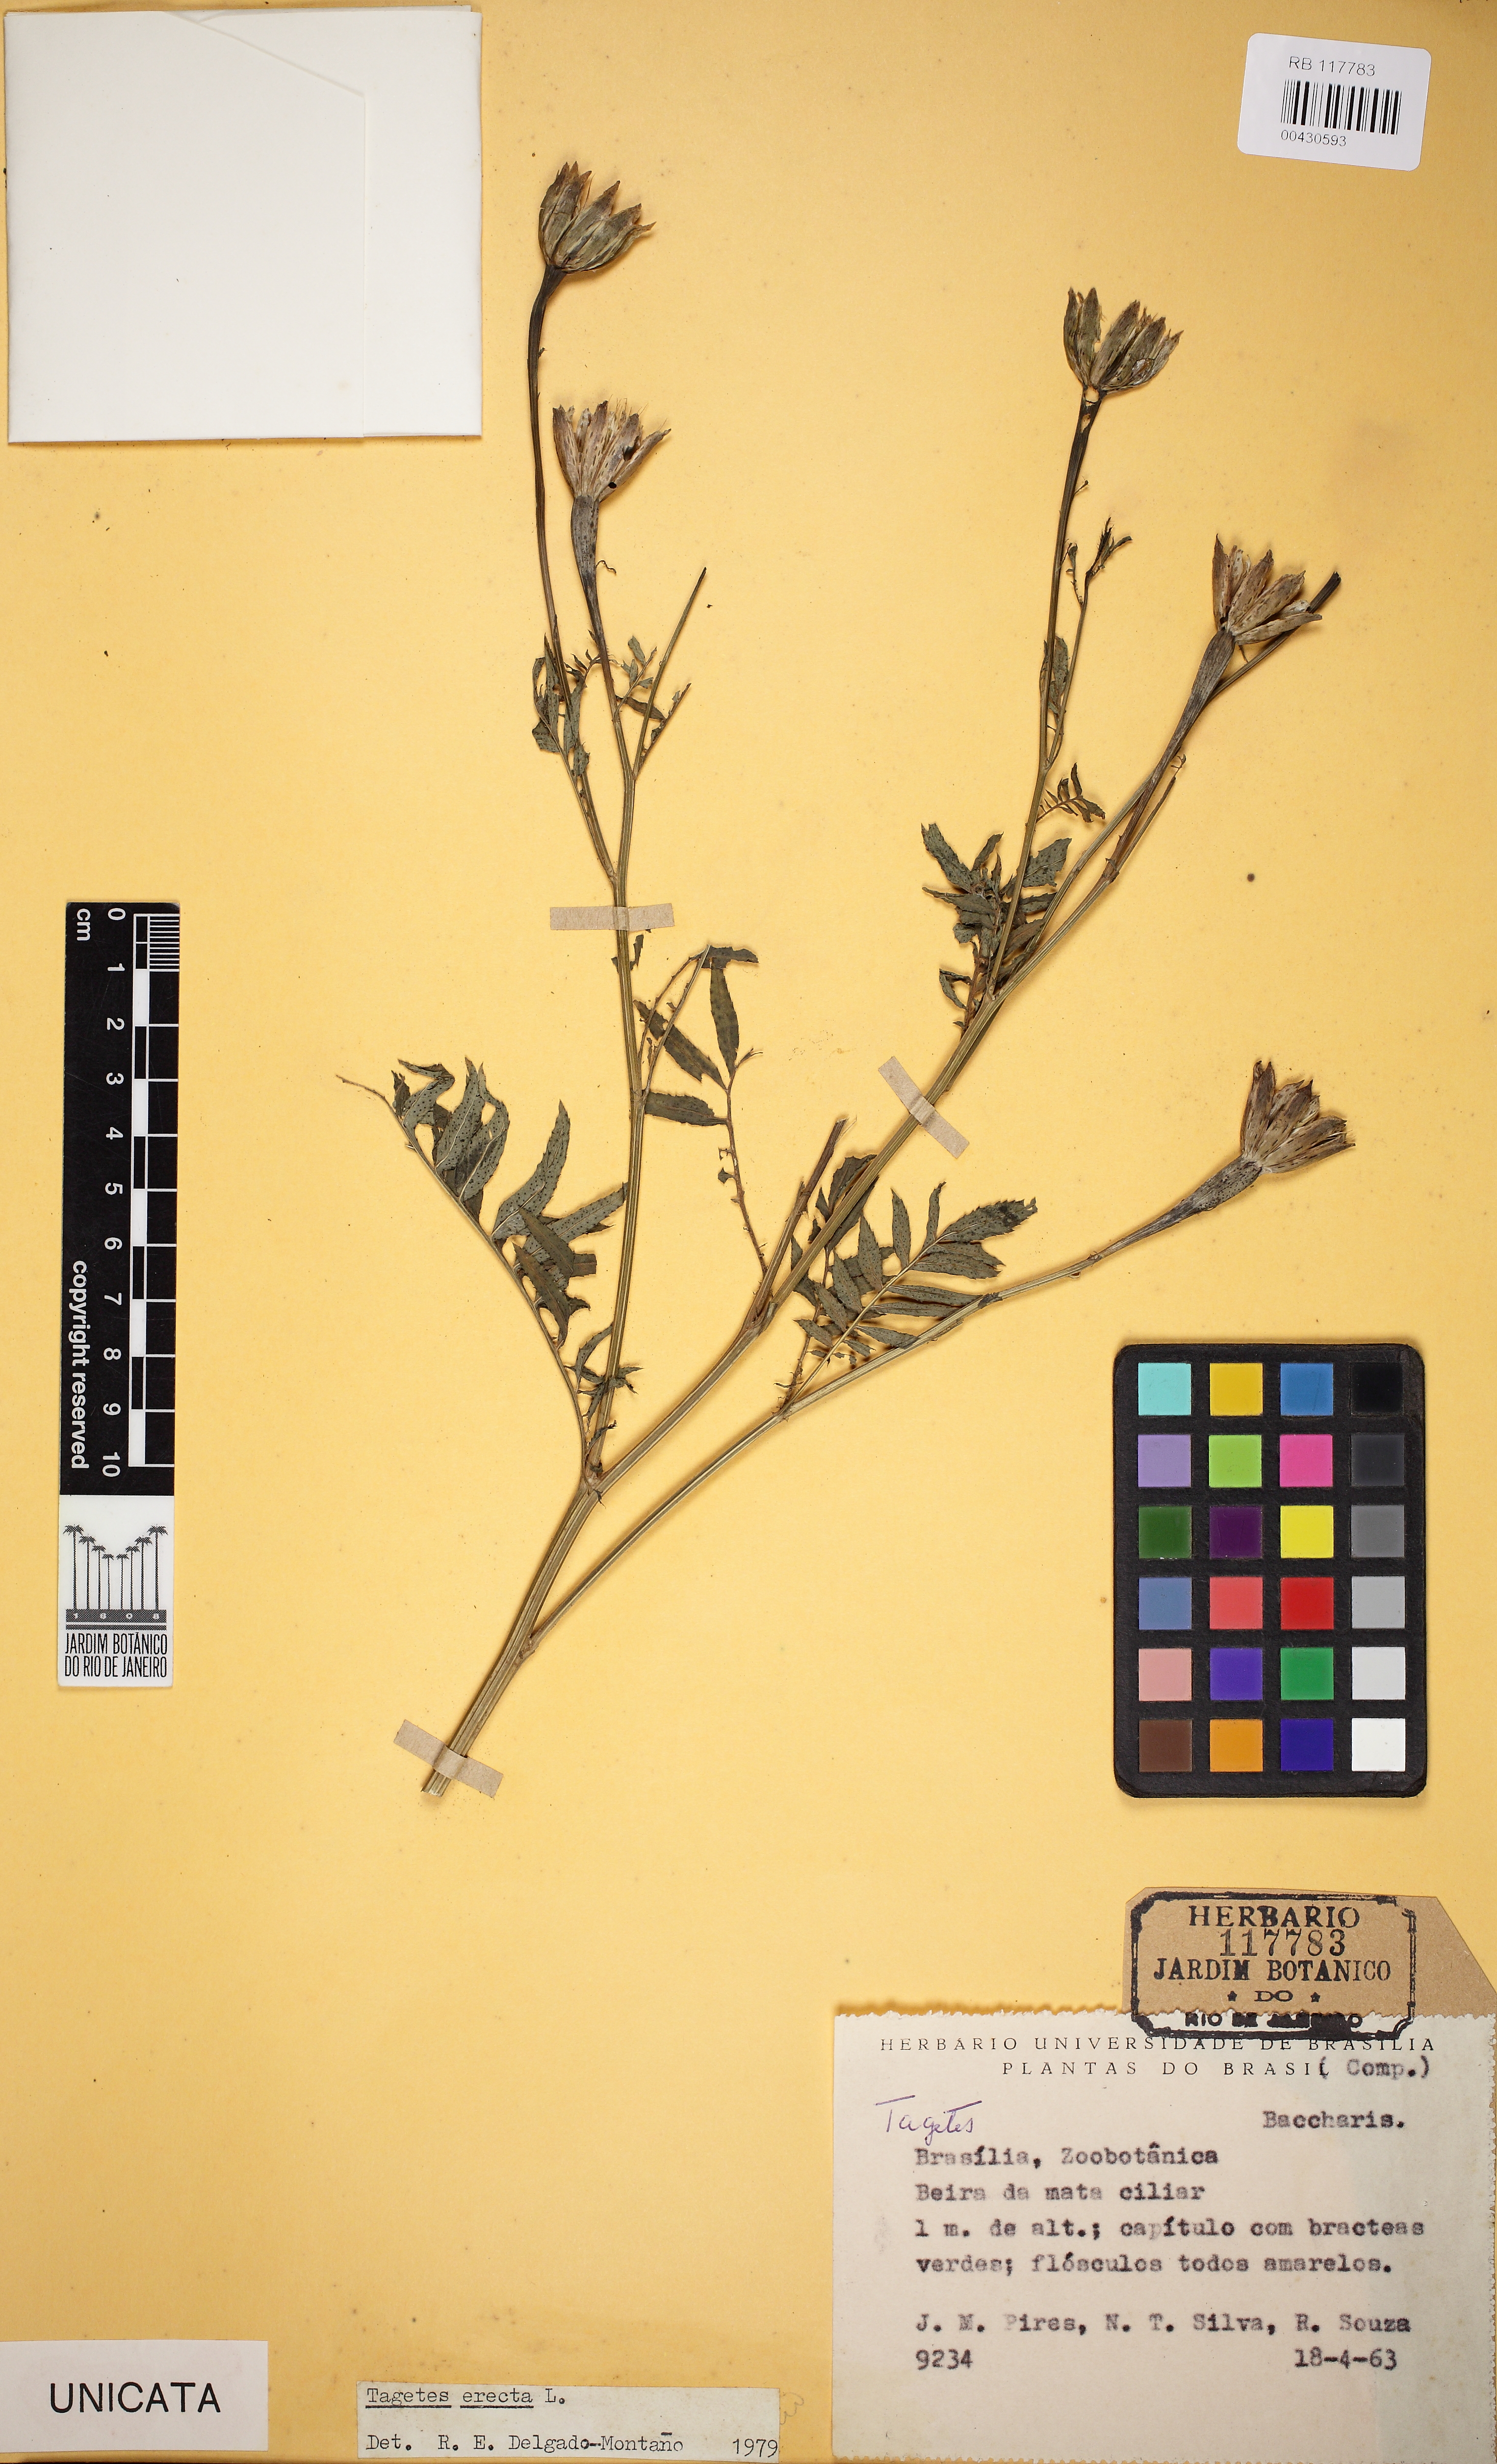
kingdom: Plantae
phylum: Tracheophyta
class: Magnoliopsida
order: Asterales
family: Asteraceae
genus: Tagetes
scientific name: Tagetes erecta
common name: African marigold
